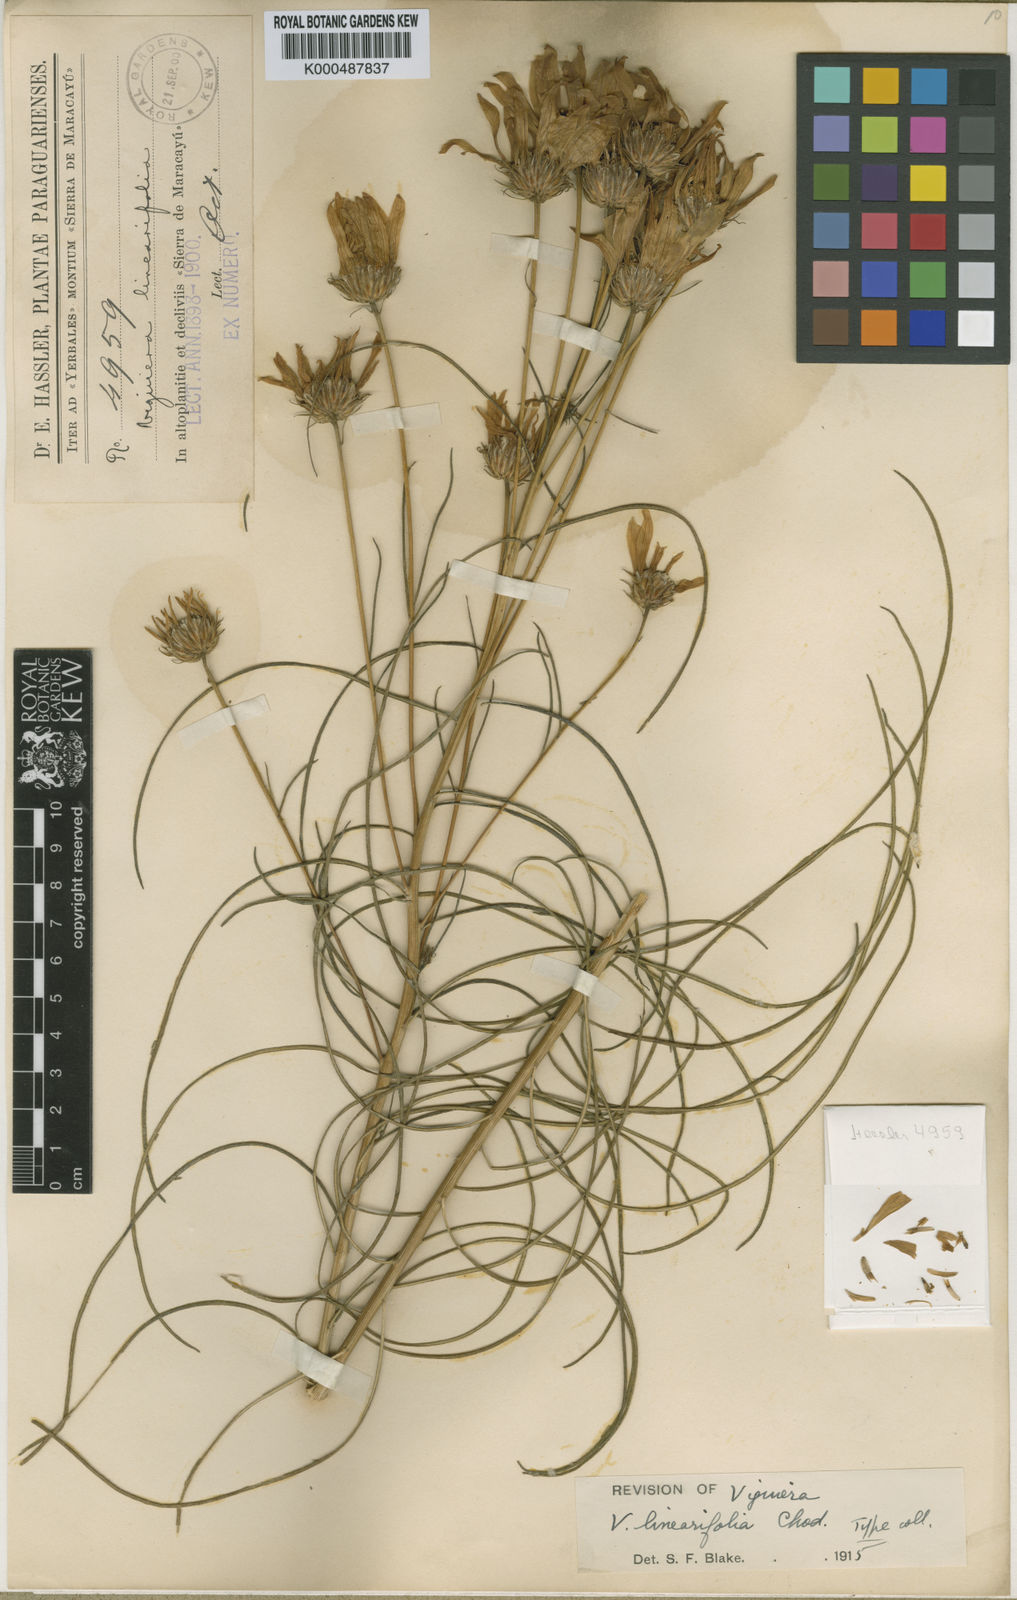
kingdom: Plantae
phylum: Tracheophyta
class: Magnoliopsida
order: Asterales
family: Asteraceae
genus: Aldama
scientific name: Aldama linearifolia
